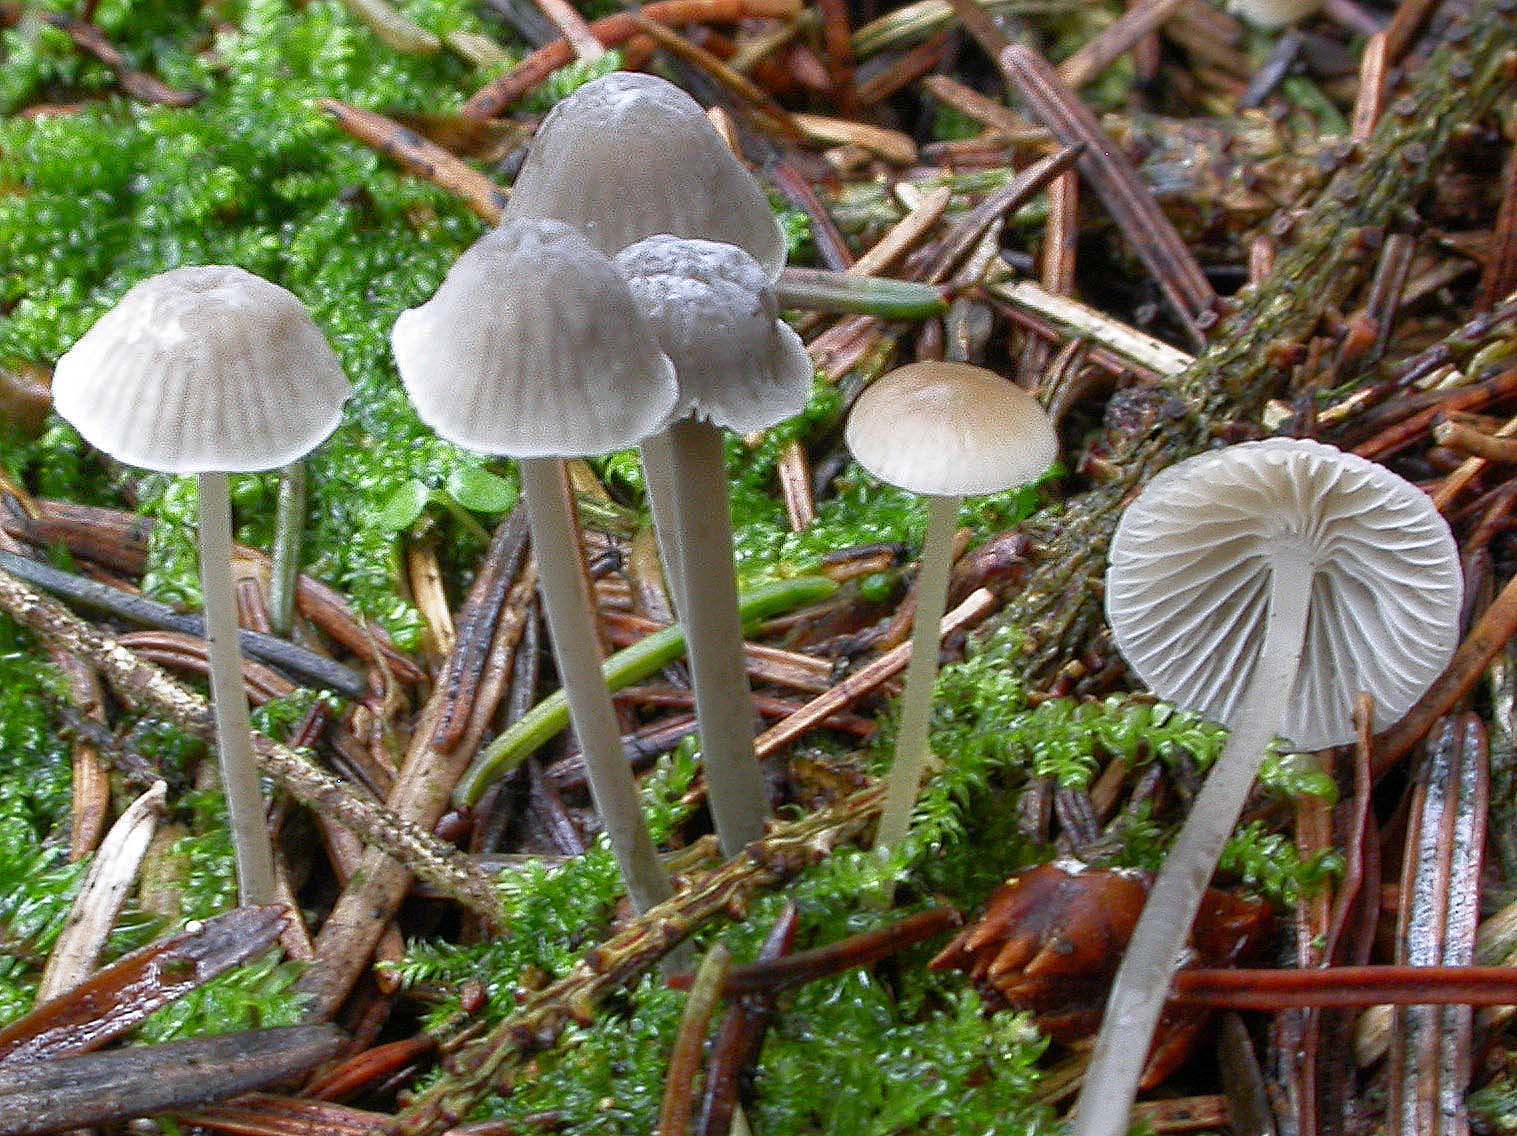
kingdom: Fungi
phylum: Basidiomycota
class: Agaricomycetes
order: Agaricales
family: Mycenaceae
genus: Mycena
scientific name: Mycena cinerella
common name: mel-huesvamp
